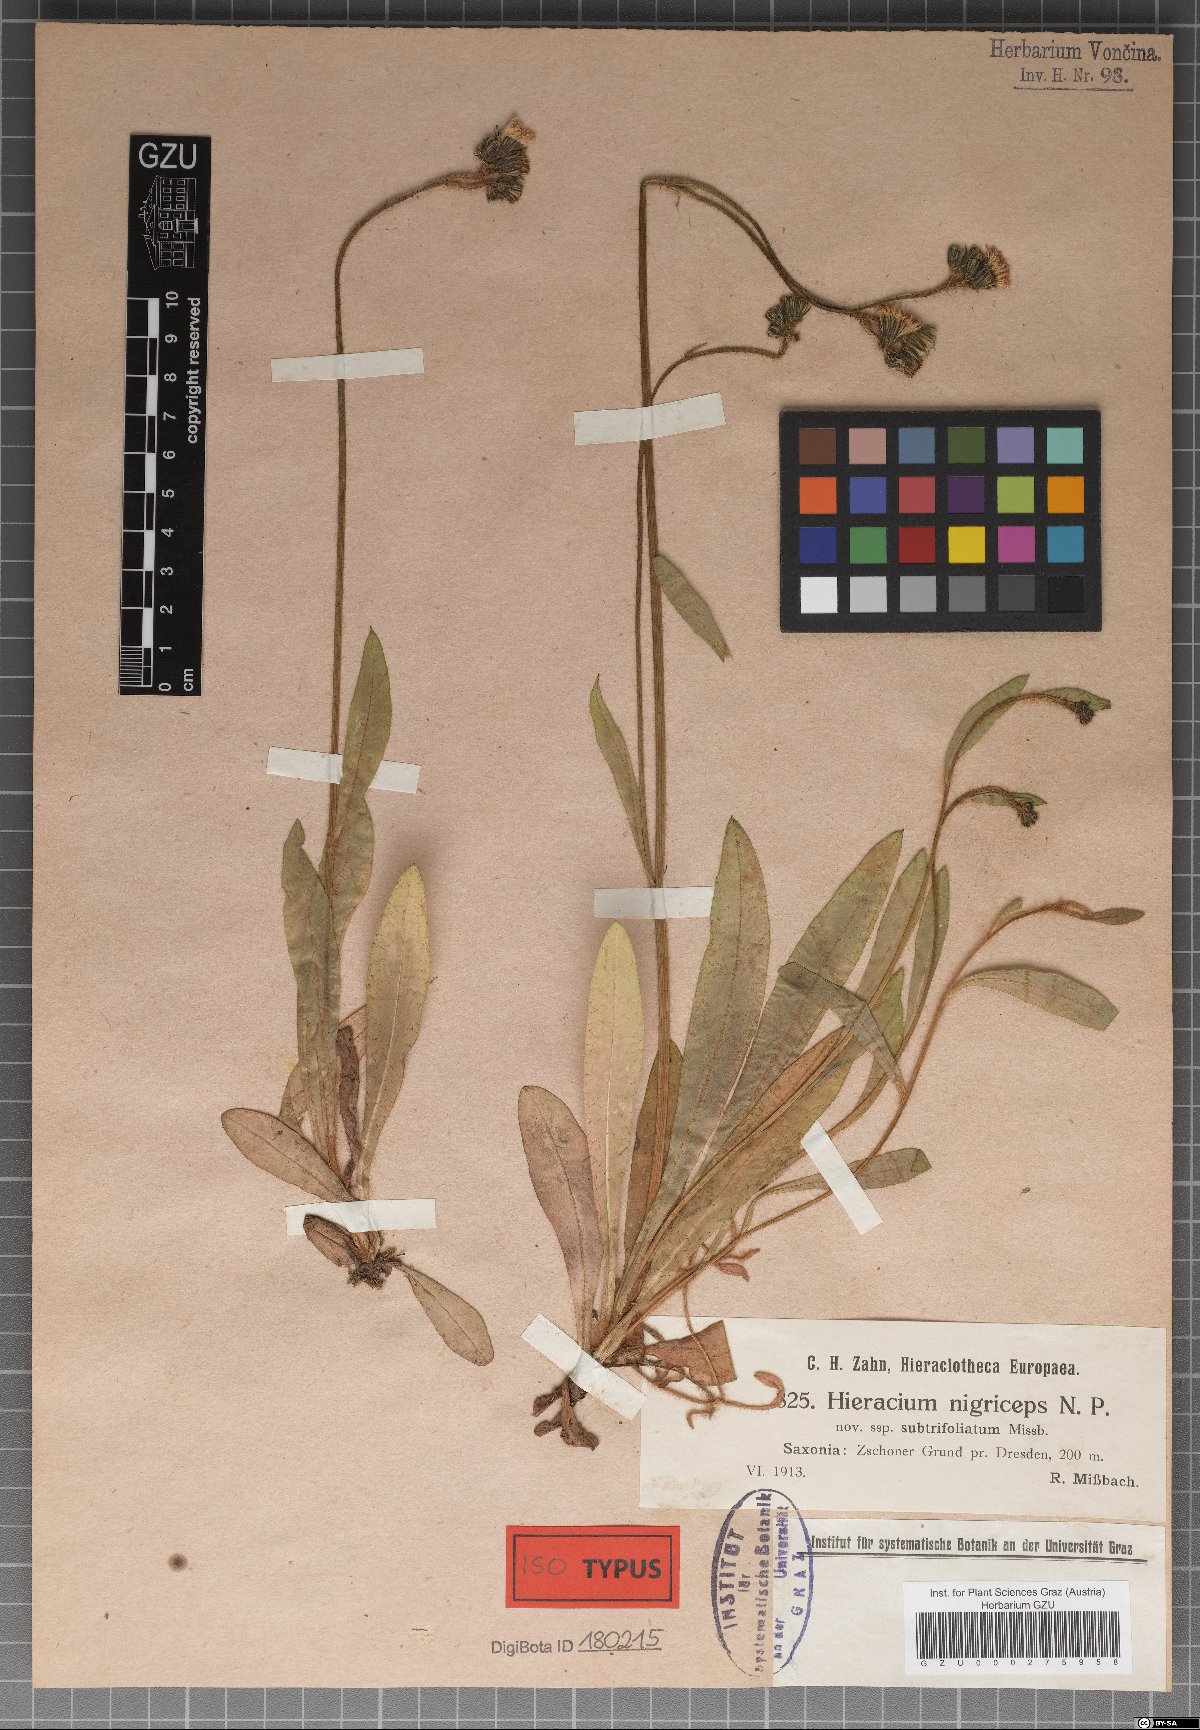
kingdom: Plantae
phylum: Tracheophyta
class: Magnoliopsida
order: Asterales
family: Asteraceae
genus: Hieracium
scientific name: Hieracium nigriceps
